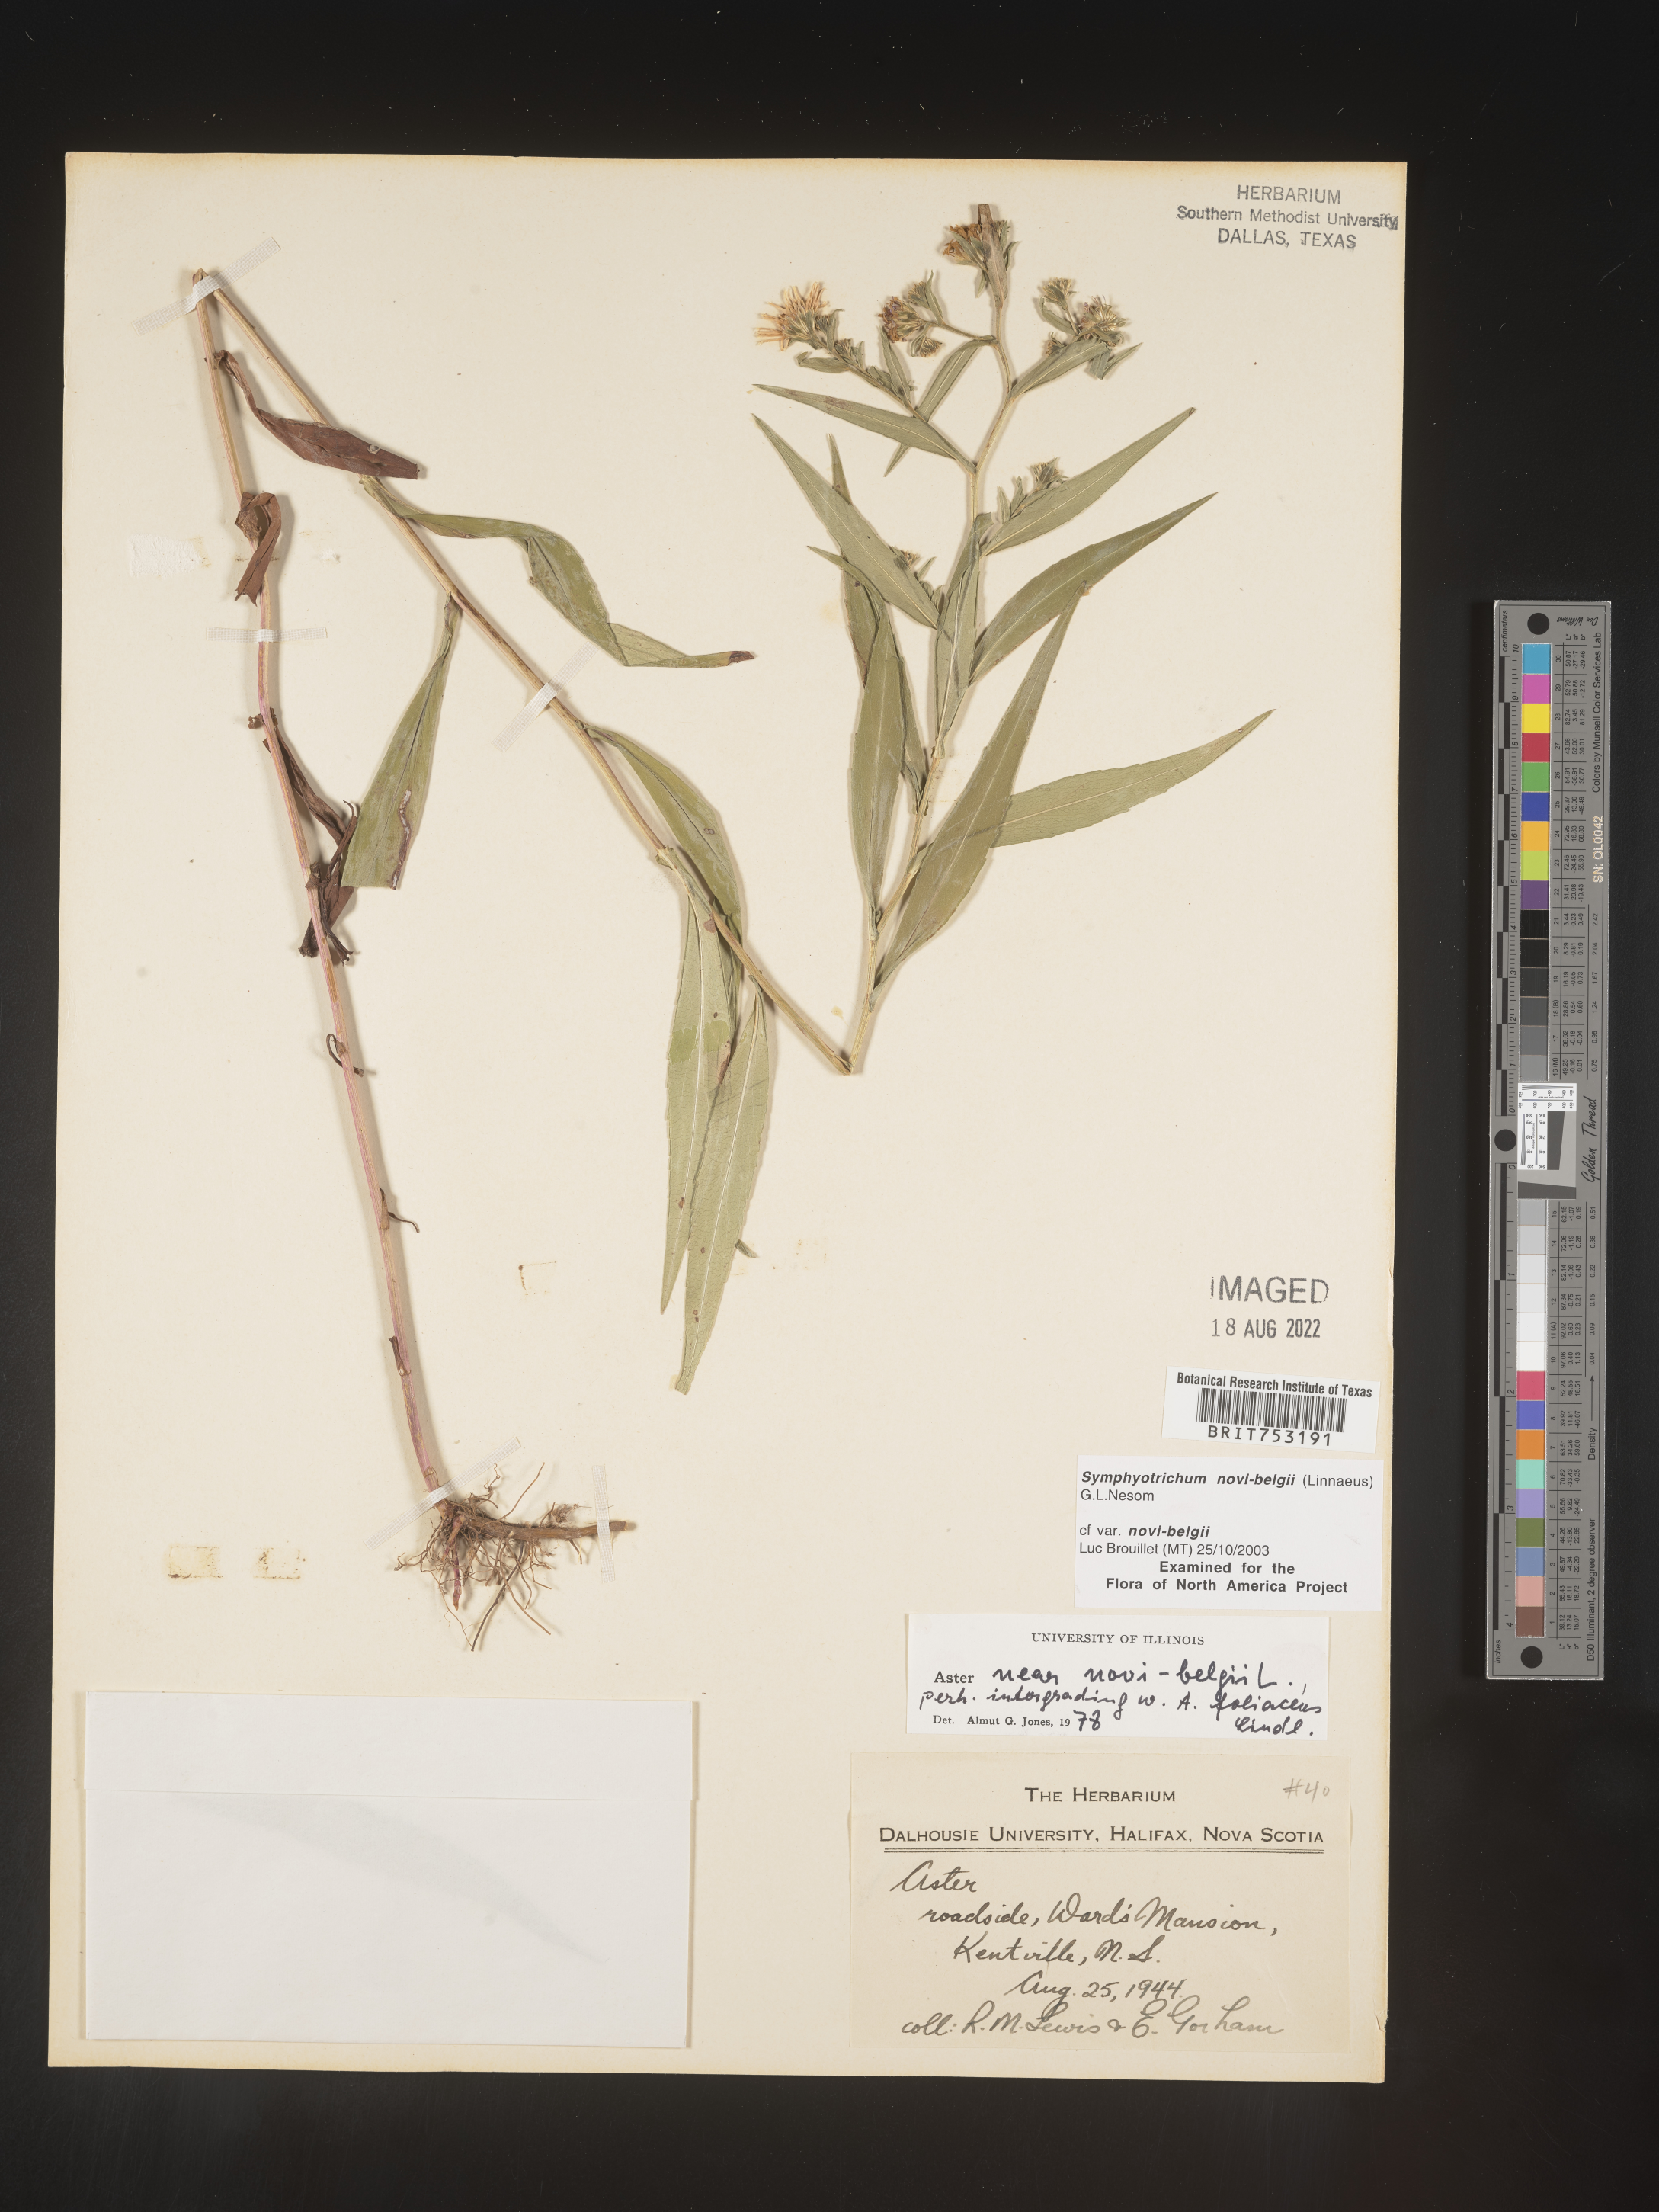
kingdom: Plantae
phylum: Tracheophyta
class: Magnoliopsida
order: Asterales
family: Asteraceae
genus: Symphyotrichum
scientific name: Symphyotrichum novi-belgii
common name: Michaelmas daisy
